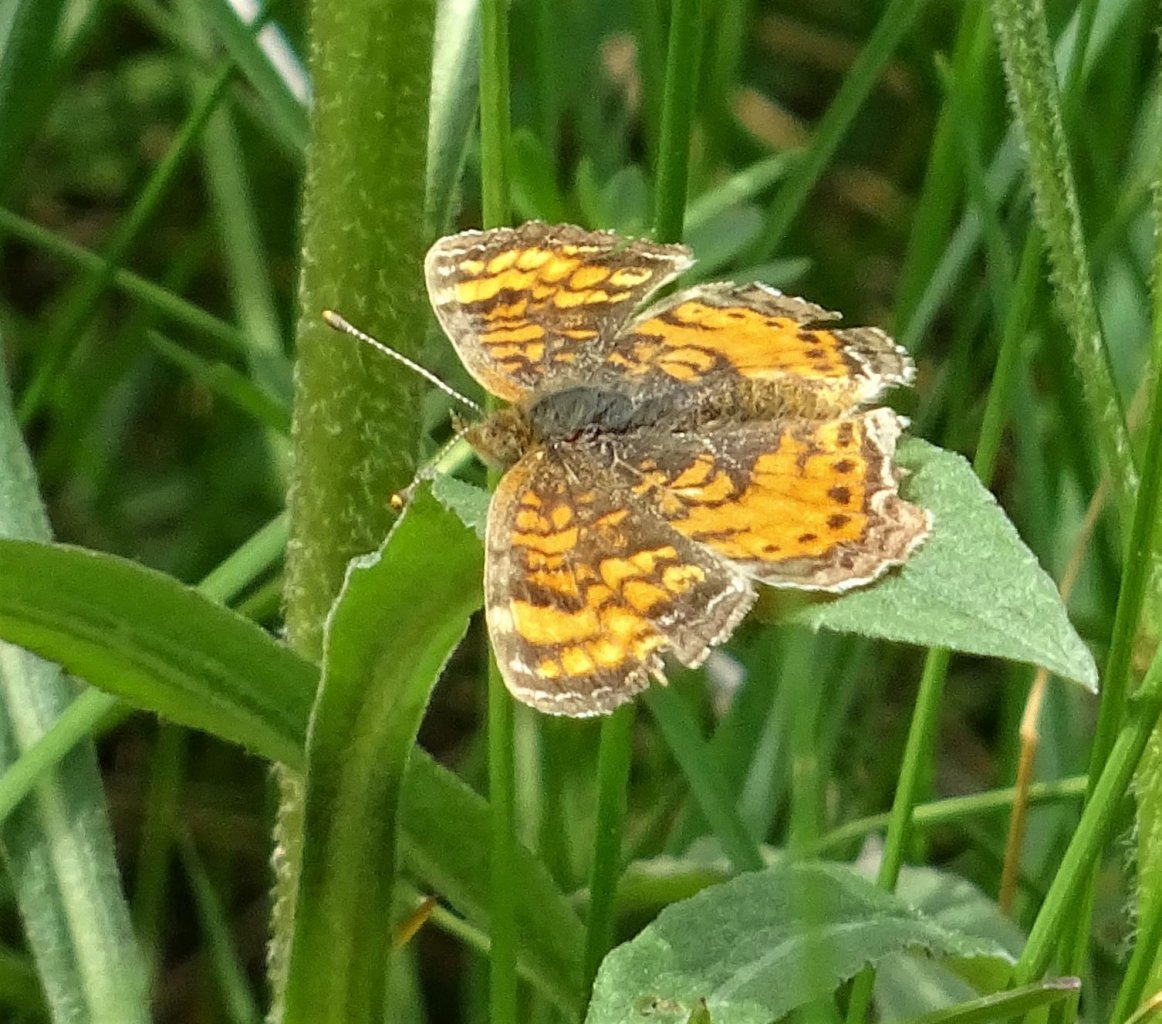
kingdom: Animalia
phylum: Arthropoda
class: Insecta
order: Lepidoptera
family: Nymphalidae
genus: Phyciodes
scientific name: Phyciodes tharos
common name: Northern Crescent
